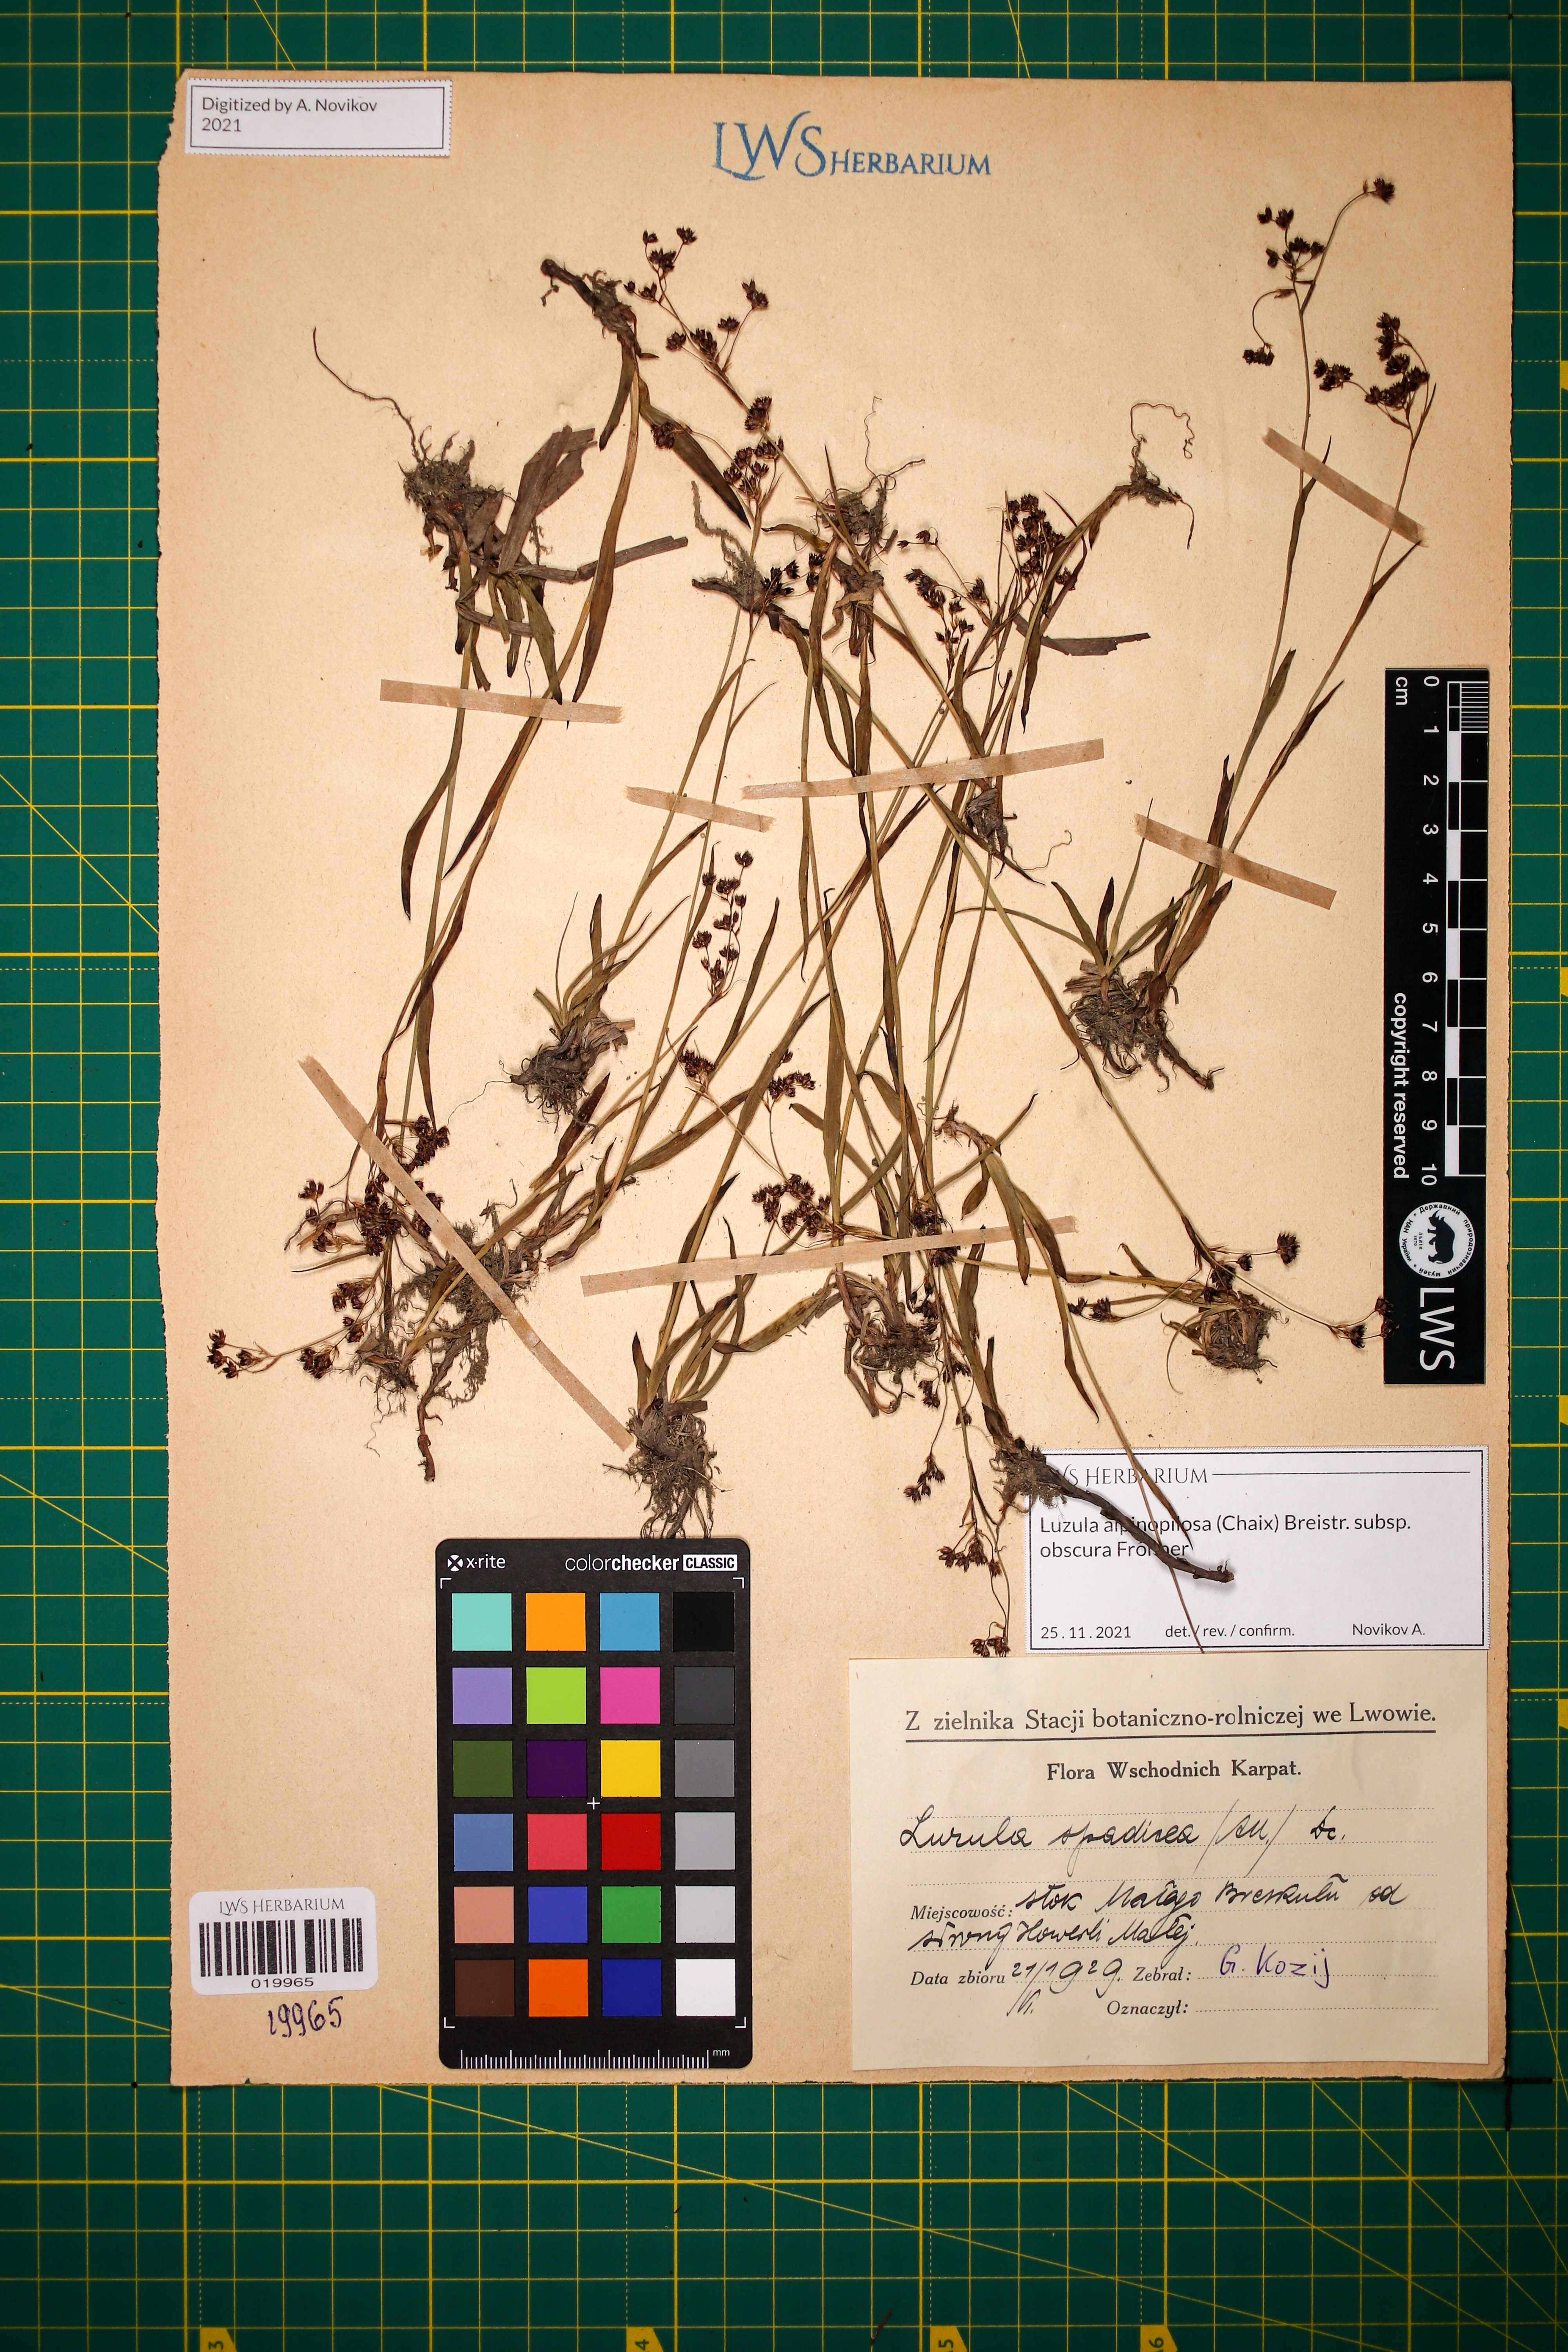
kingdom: Plantae
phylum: Tracheophyta
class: Liliopsida
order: Poales
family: Juncaceae
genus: Luzula
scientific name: Luzula alpinopilosa
